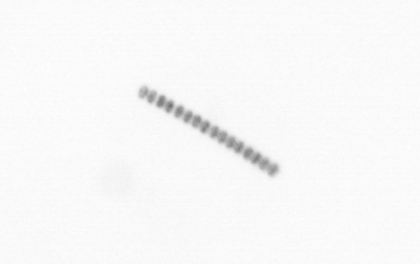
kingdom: Chromista
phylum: Ochrophyta
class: Bacillariophyceae
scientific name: Bacillariophyceae
